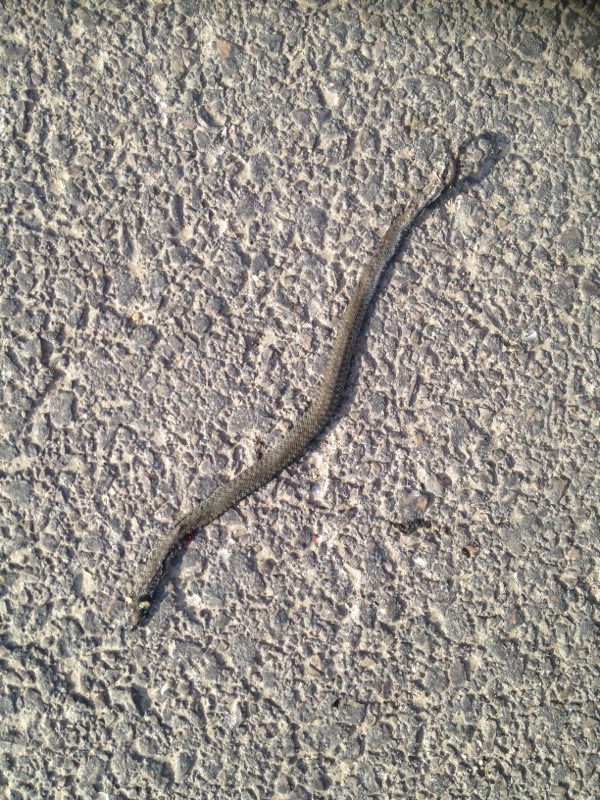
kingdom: Animalia
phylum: Chordata
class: Squamata
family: Colubridae
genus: Natrix
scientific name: Natrix natrix
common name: Grass snake
